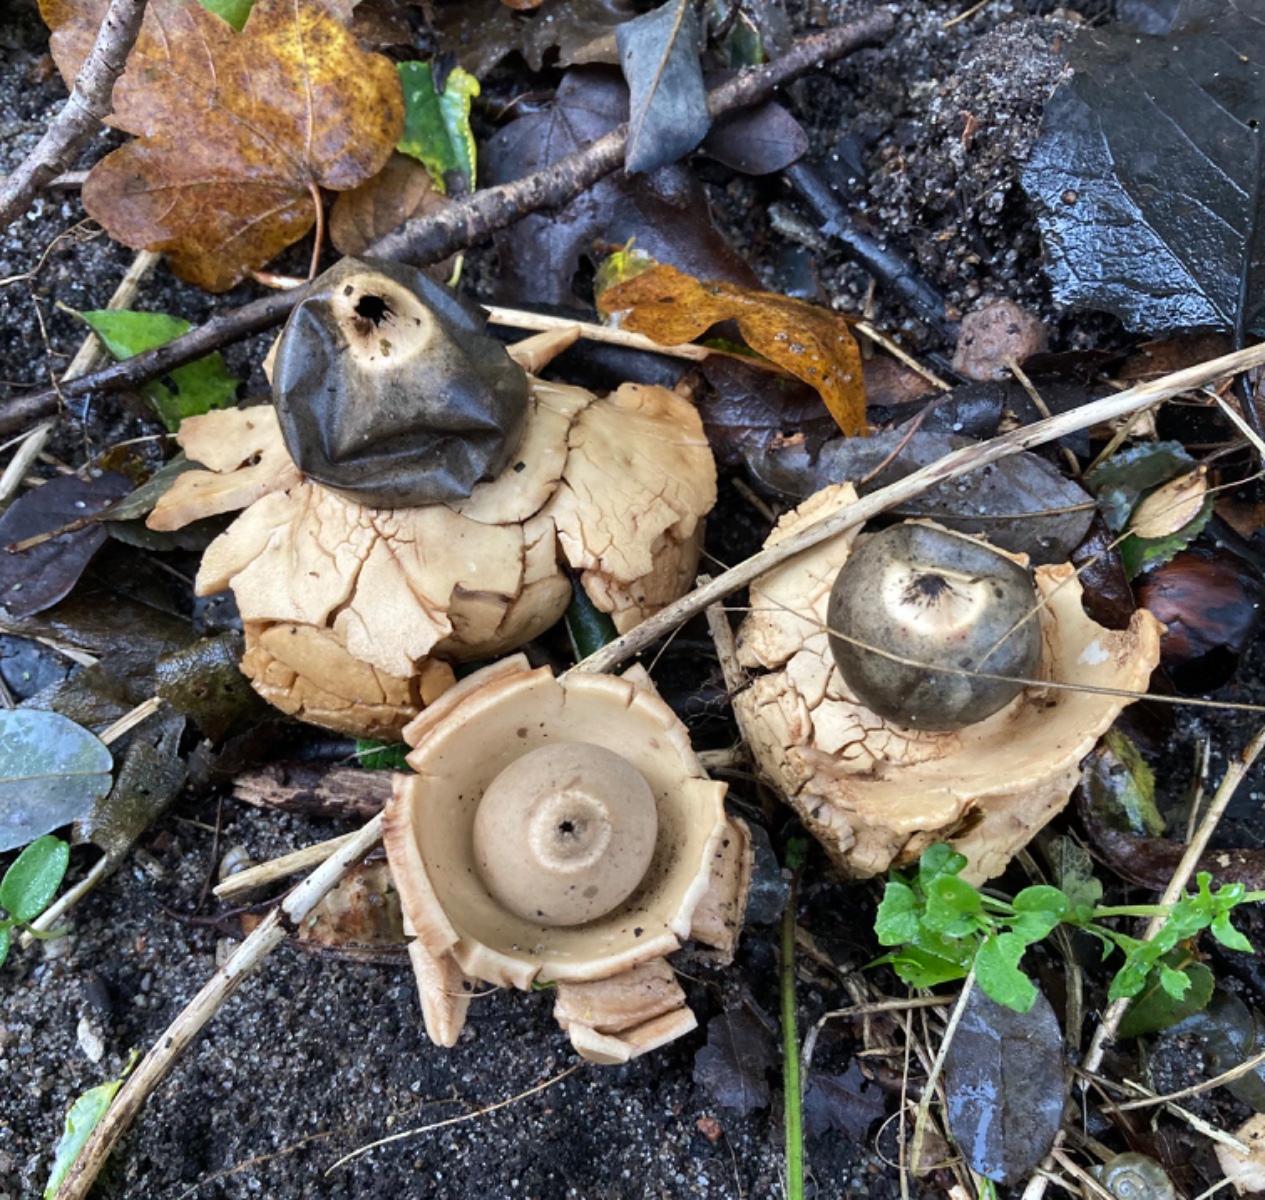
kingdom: Fungi
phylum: Basidiomycota
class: Agaricomycetes
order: Geastrales
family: Geastraceae
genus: Geastrum
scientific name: Geastrum michelianum
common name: kødet stjernebold
